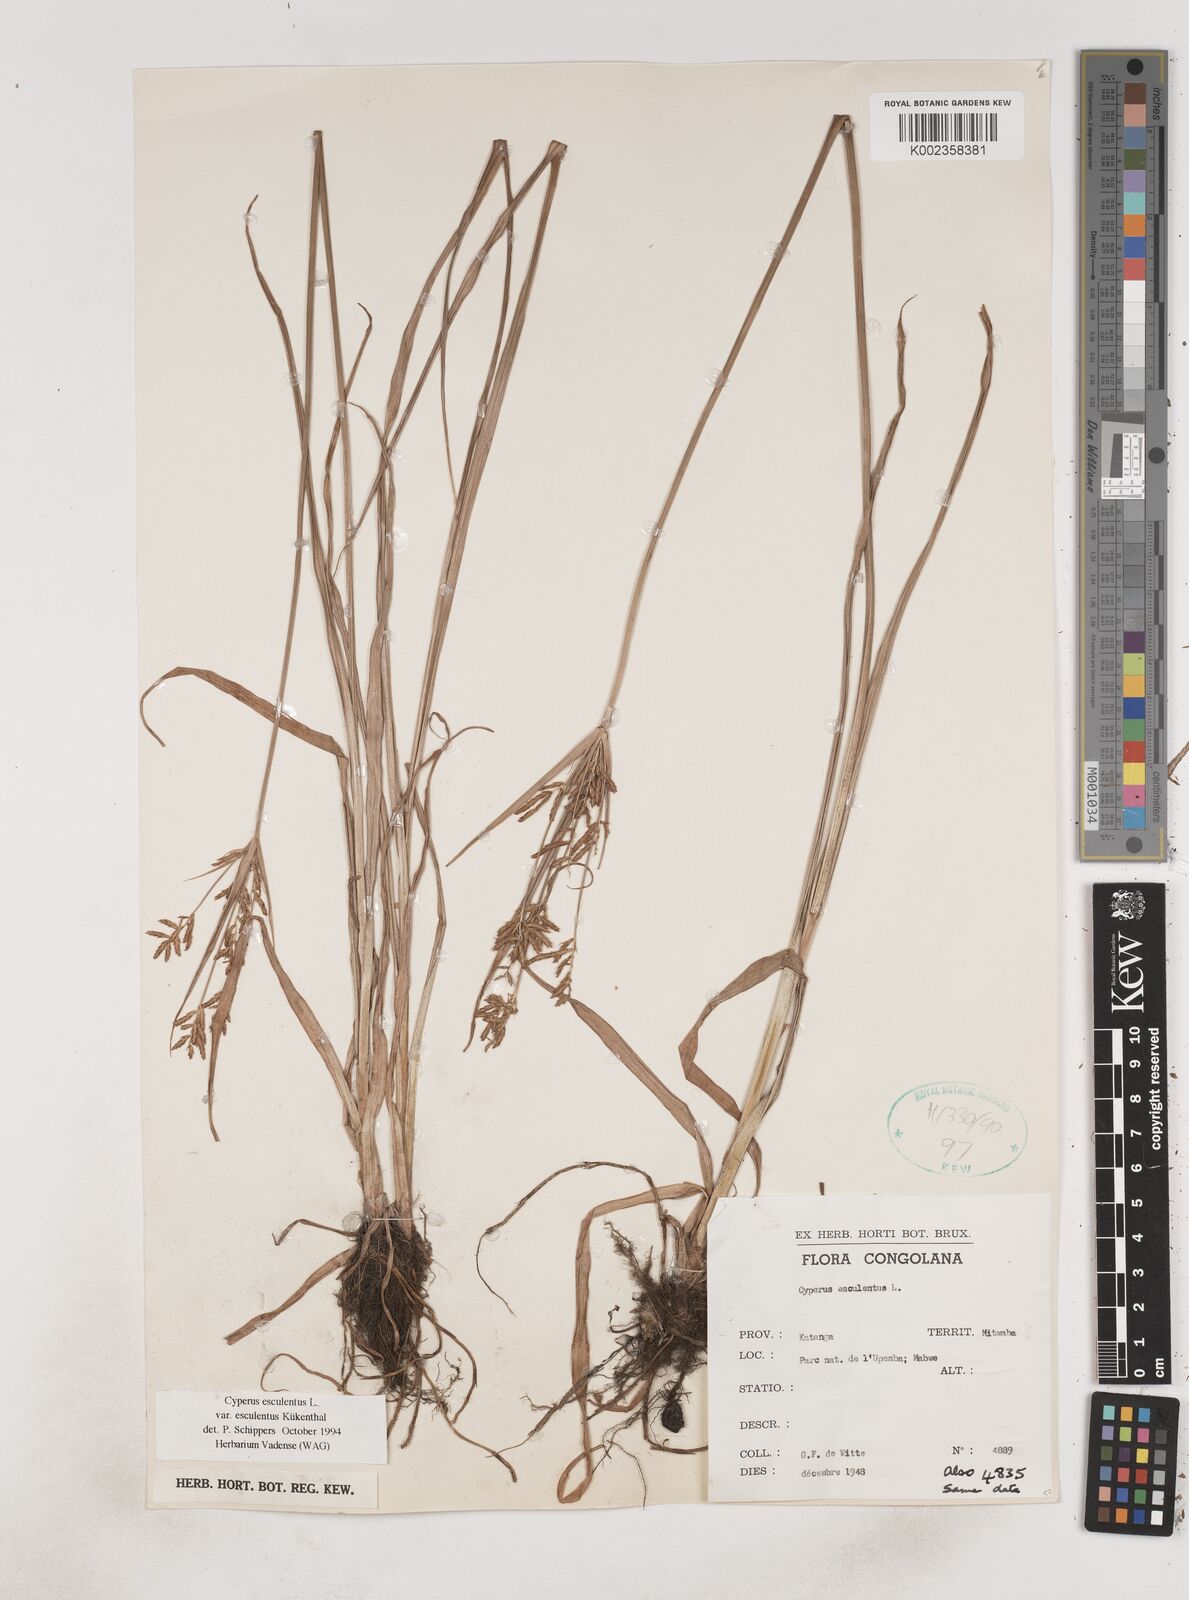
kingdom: Plantae
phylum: Tracheophyta
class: Liliopsida
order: Poales
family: Cyperaceae
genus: Cyperus
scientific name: Cyperus esculentus
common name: Yellow nutsedge
